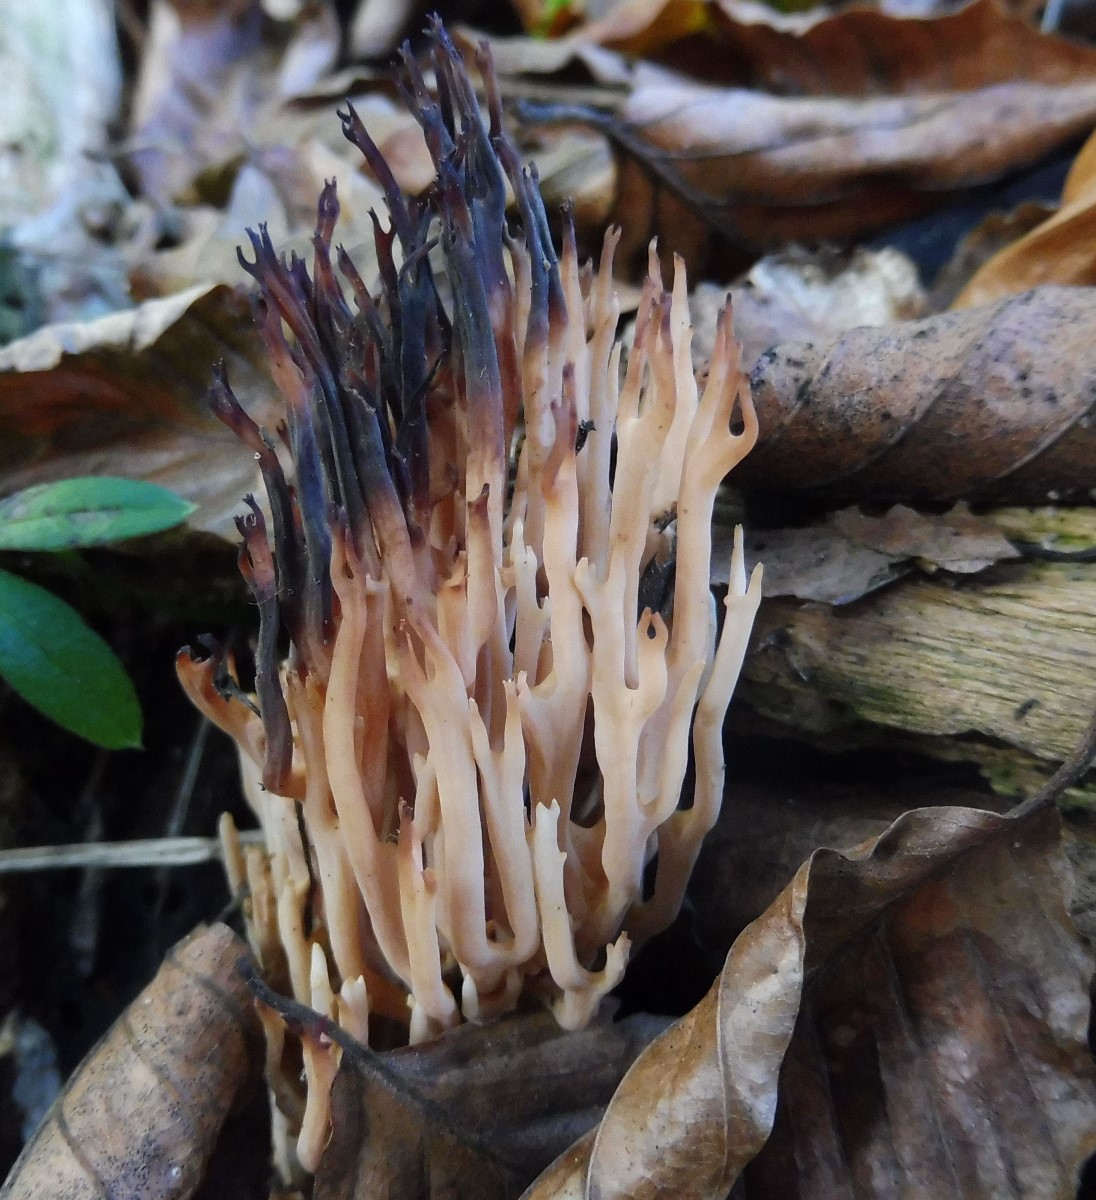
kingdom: Fungi
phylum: Basidiomycota
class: Agaricomycetes
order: Gomphales
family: Gomphaceae
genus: Ramaria
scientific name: Ramaria stricta
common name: rank koralsvamp
